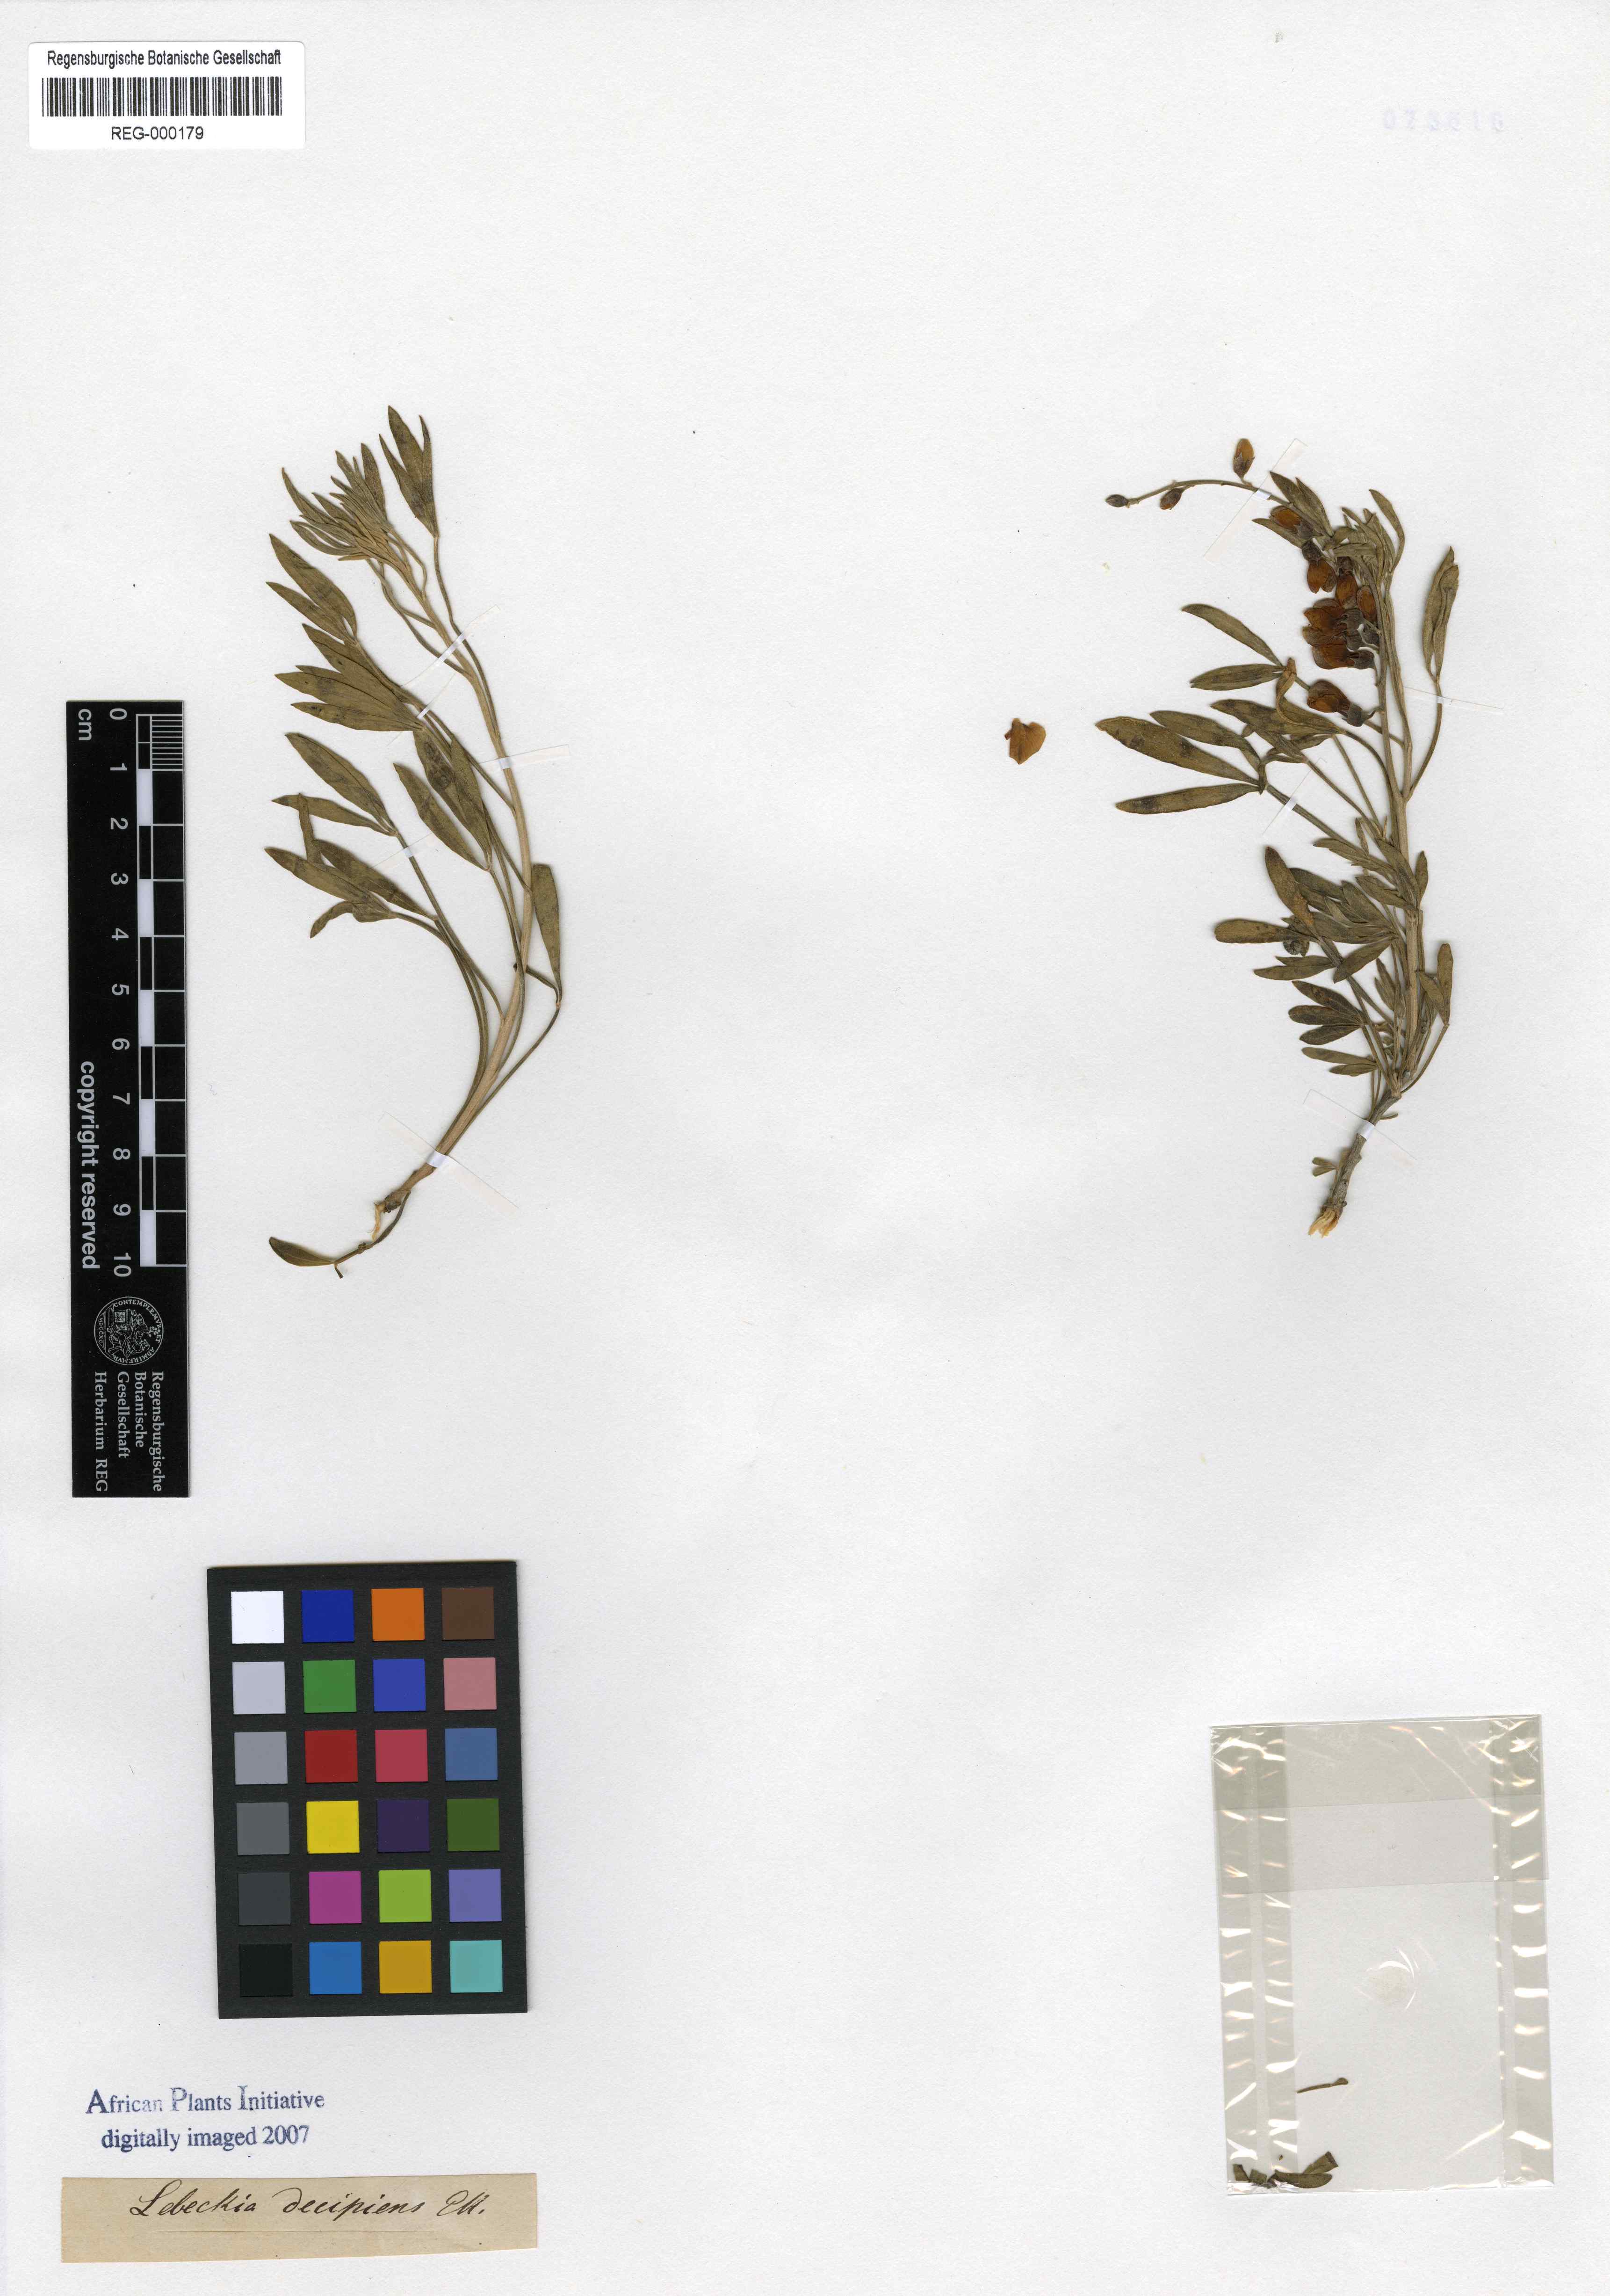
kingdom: Plantae
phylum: Tracheophyta
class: Magnoliopsida
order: Fabales
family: Fabaceae
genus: Calobota
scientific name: Calobota sericea
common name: Silver-pea
